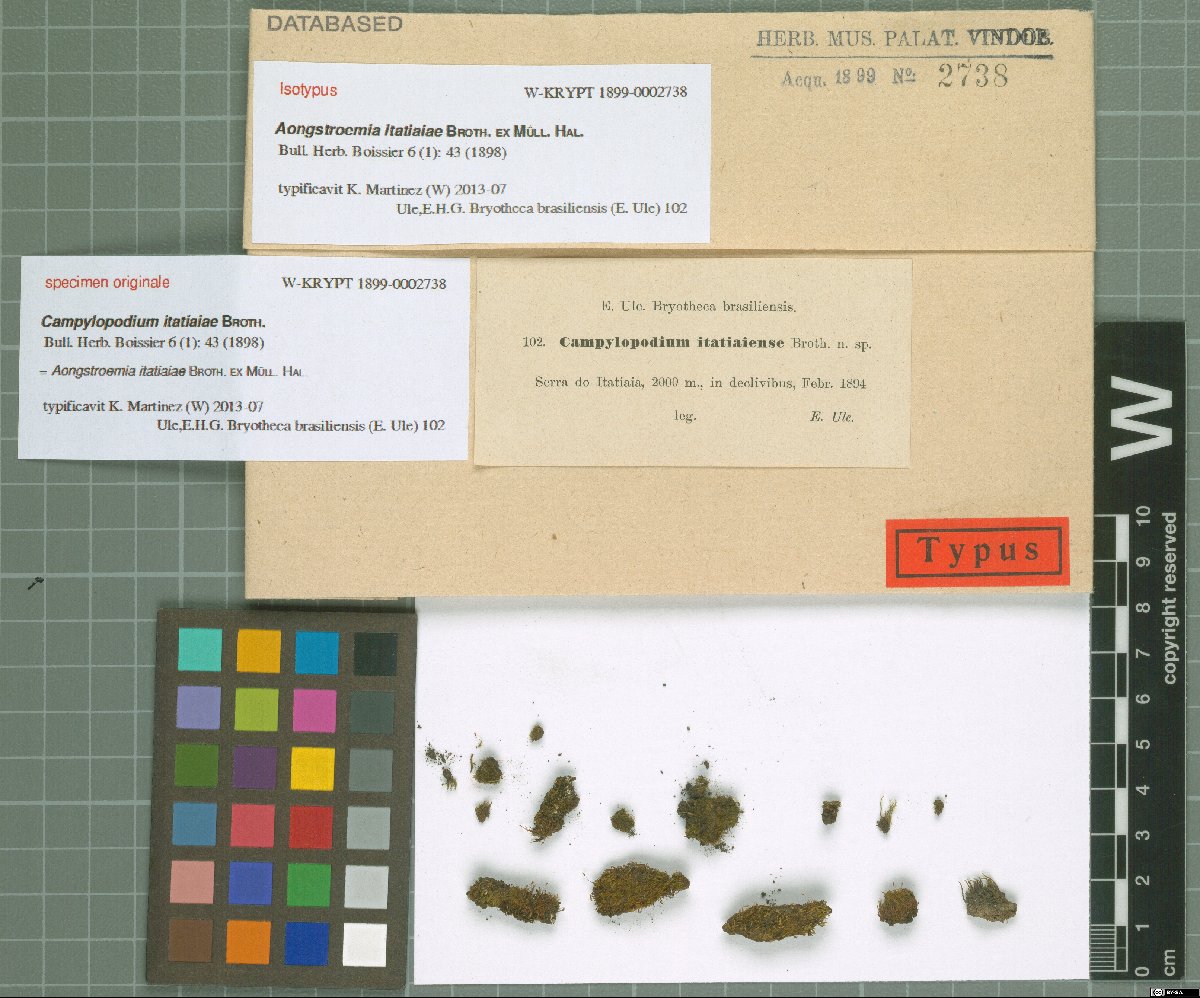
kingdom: Plantae
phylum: Bryophyta
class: Bryopsida
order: Dicranales
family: Dicranaceae
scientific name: Dicranaceae
